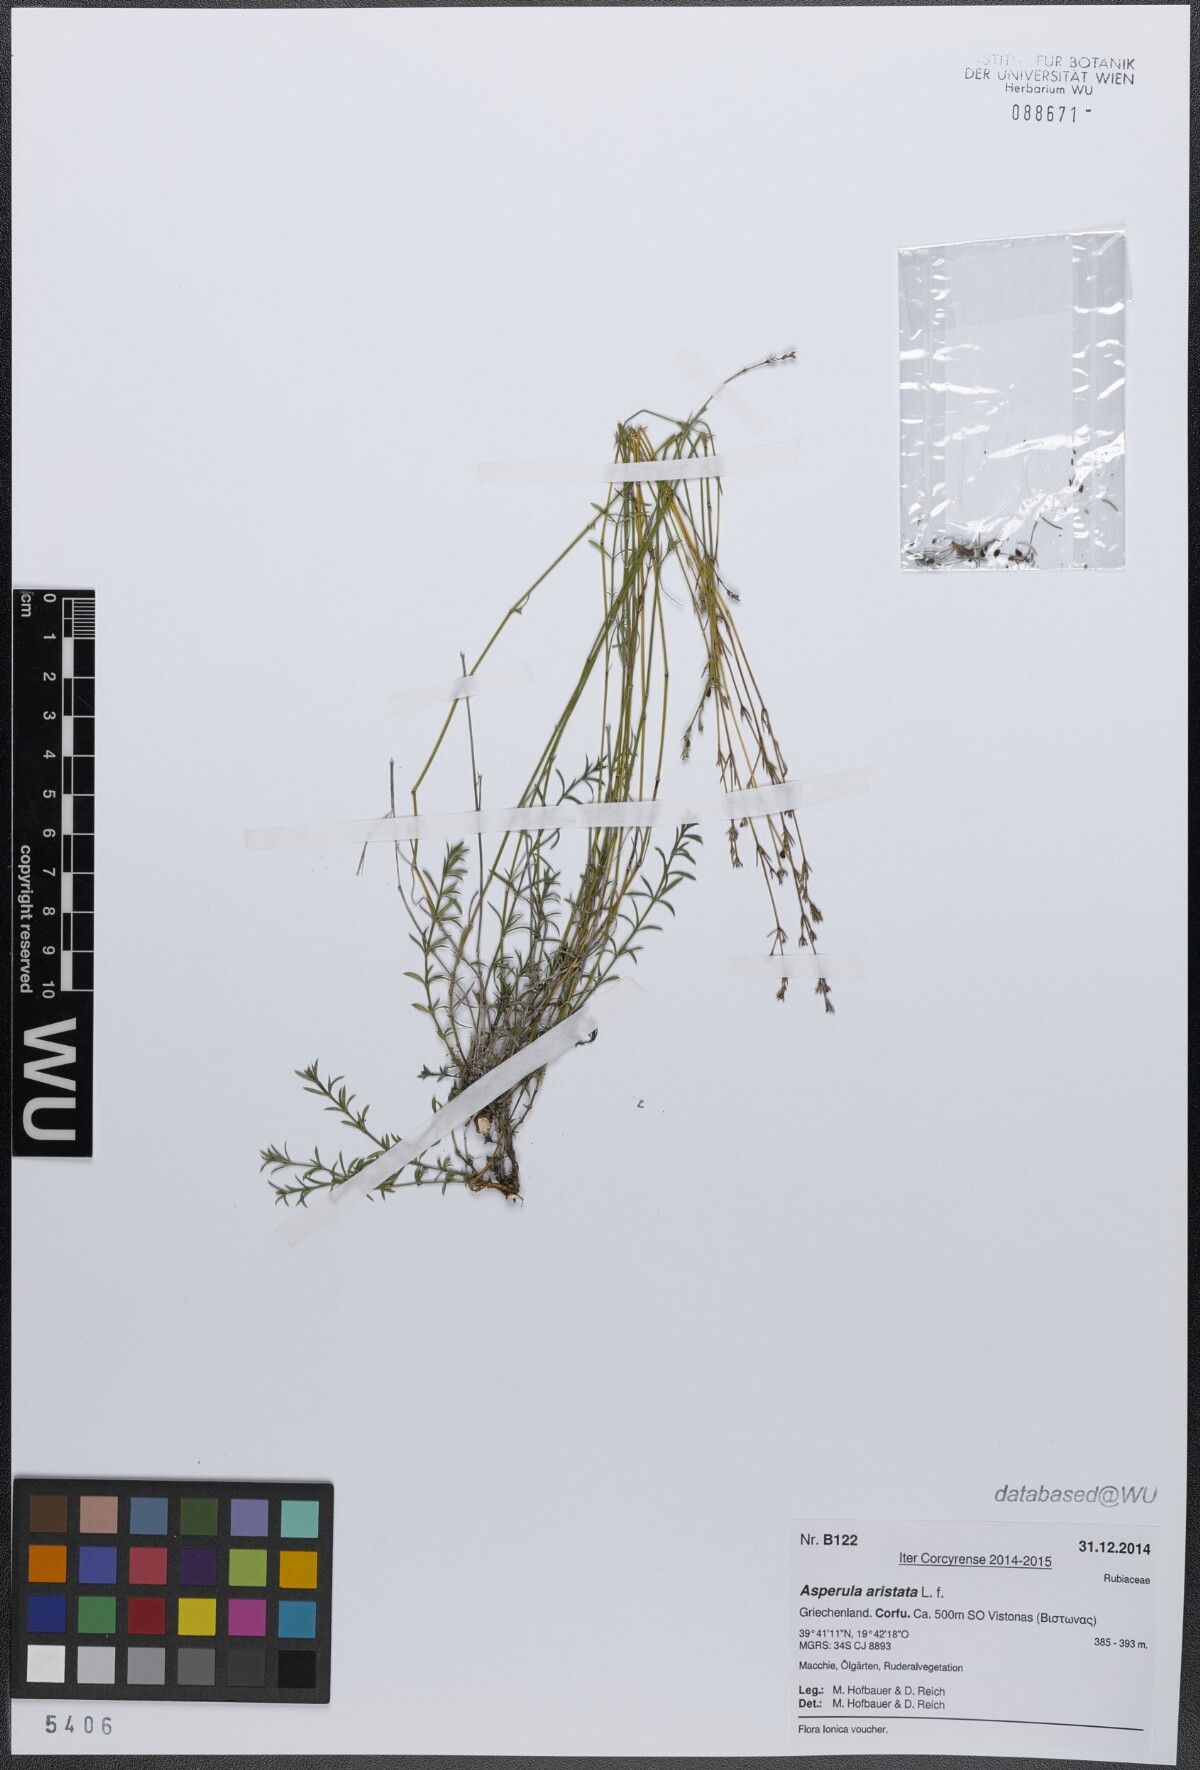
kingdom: Plantae
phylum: Tracheophyta
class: Magnoliopsida
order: Gentianales
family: Rubiaceae
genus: Cynanchica
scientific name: Cynanchica aristata
